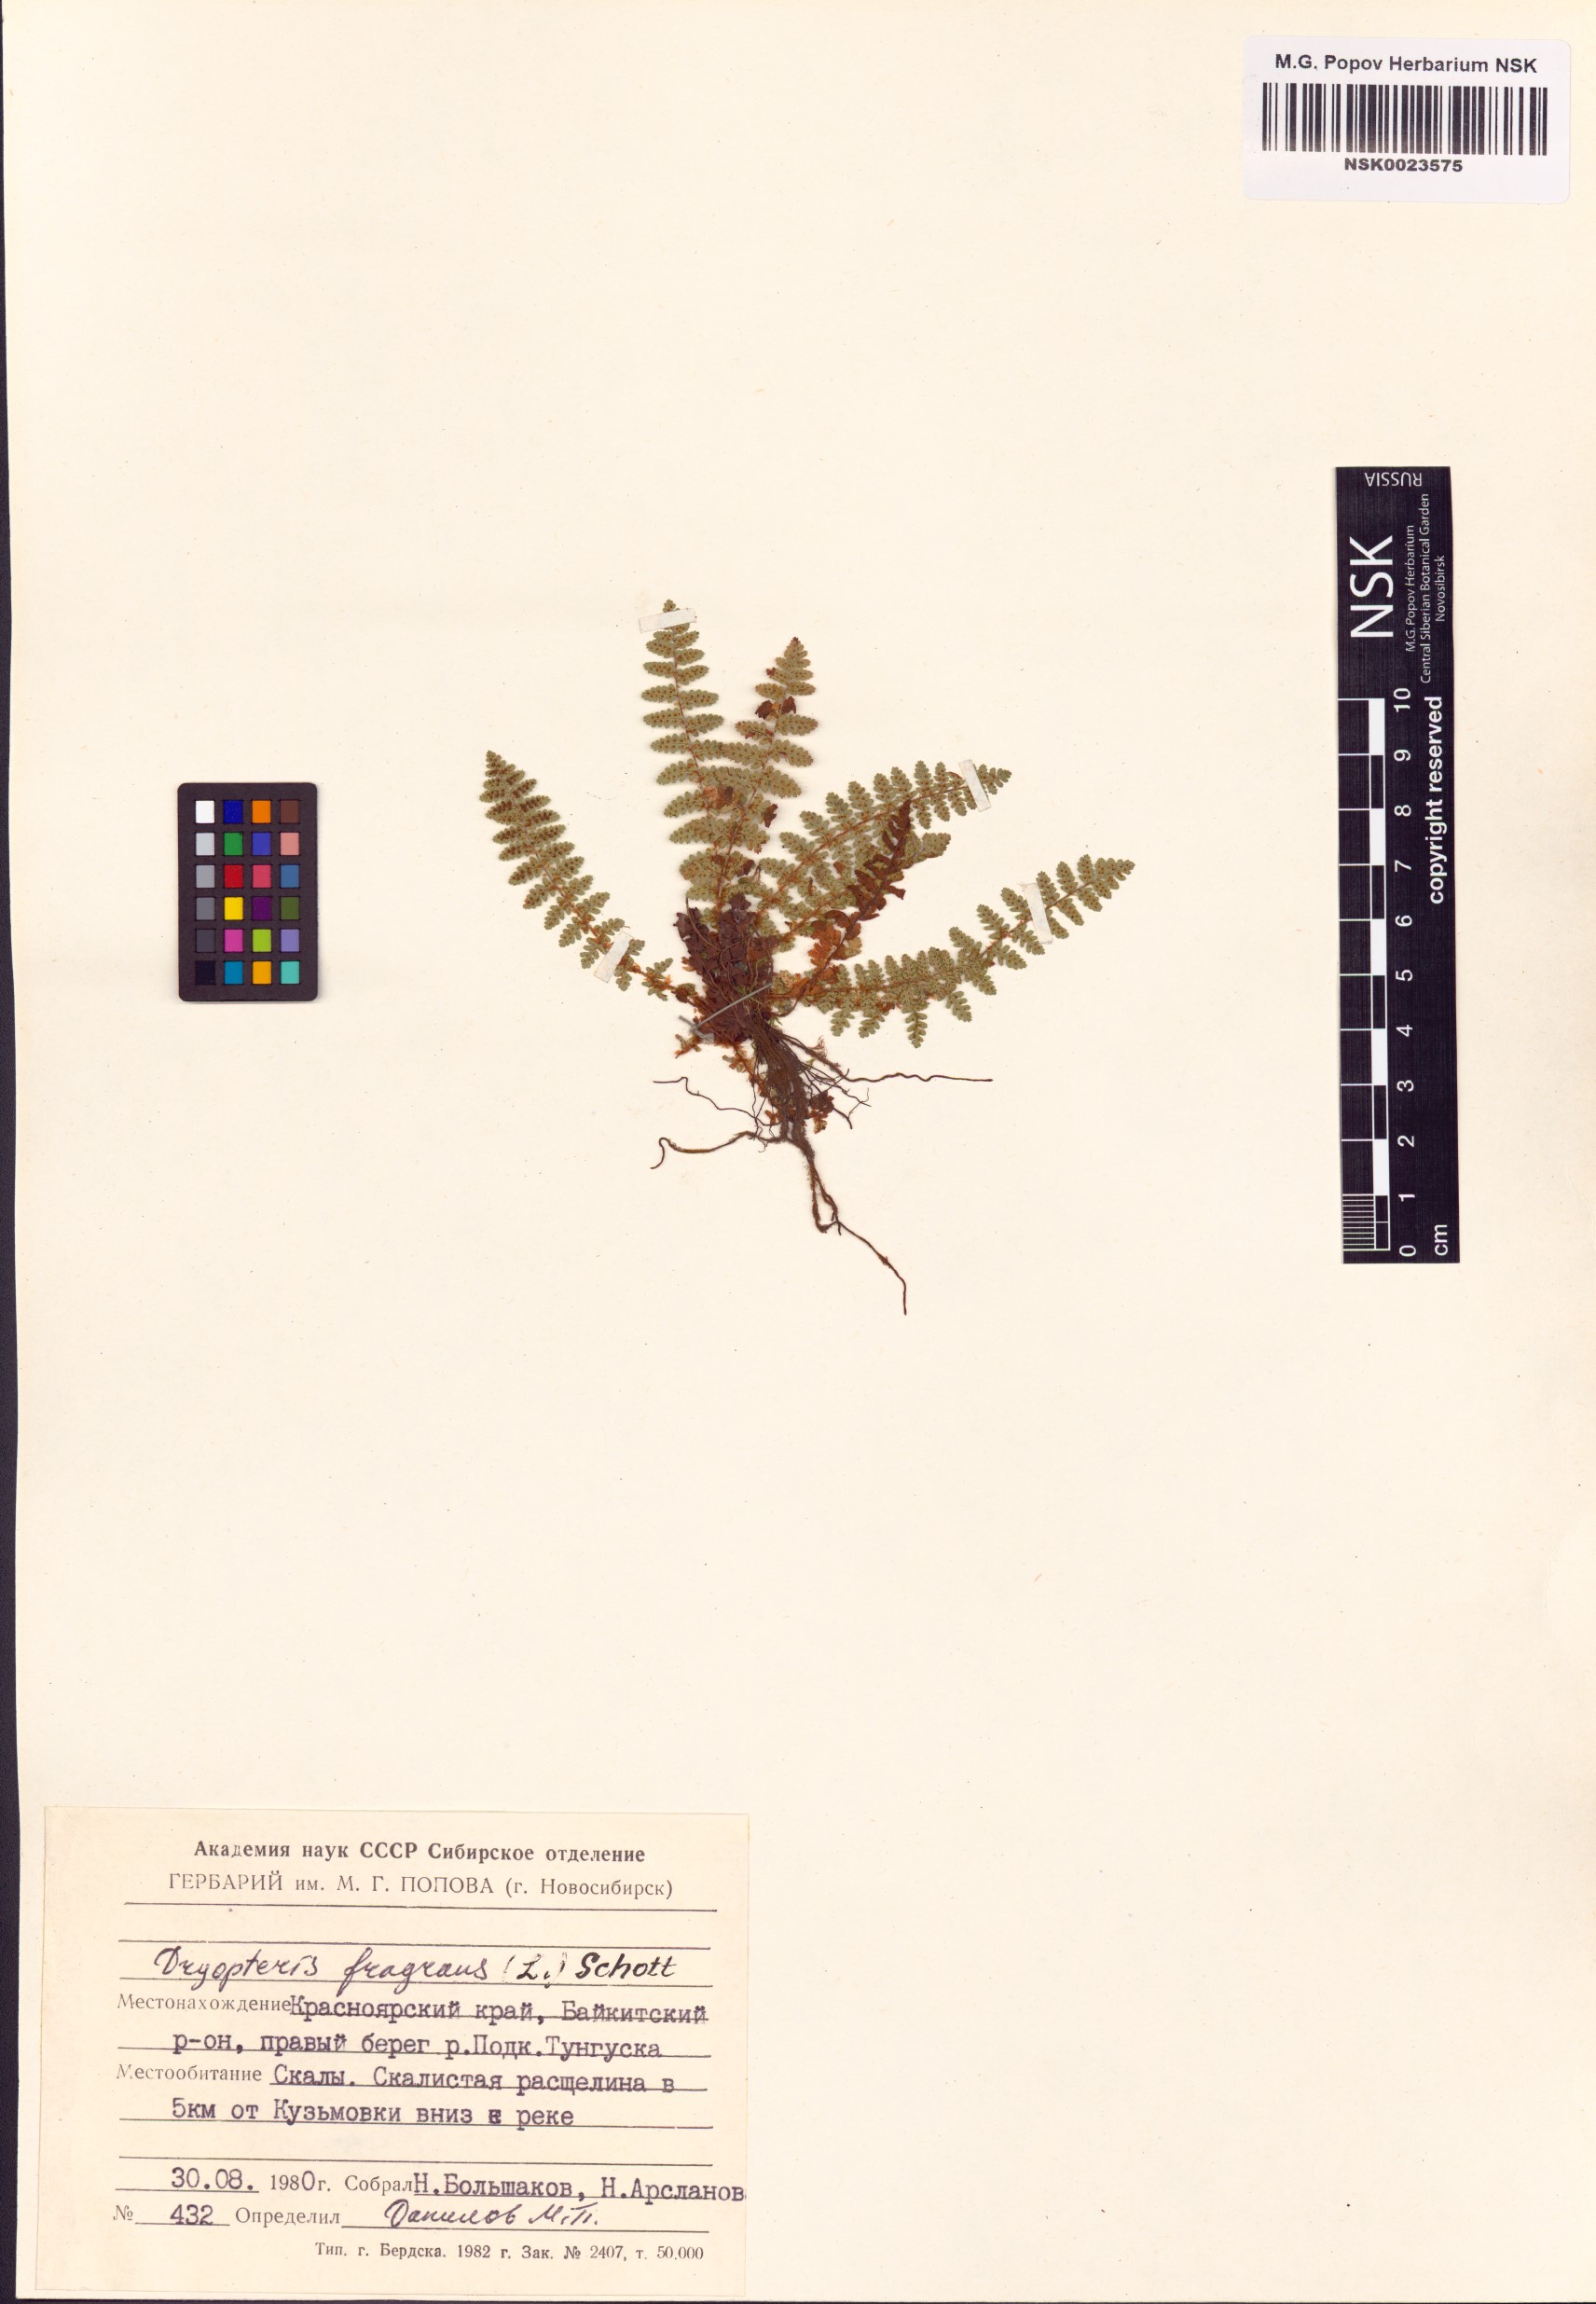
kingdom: Plantae
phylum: Tracheophyta
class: Polypodiopsida
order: Polypodiales
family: Dryopteridaceae
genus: Dryopteris
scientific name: Dryopteris fragrans
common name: Fragrant wood fern
